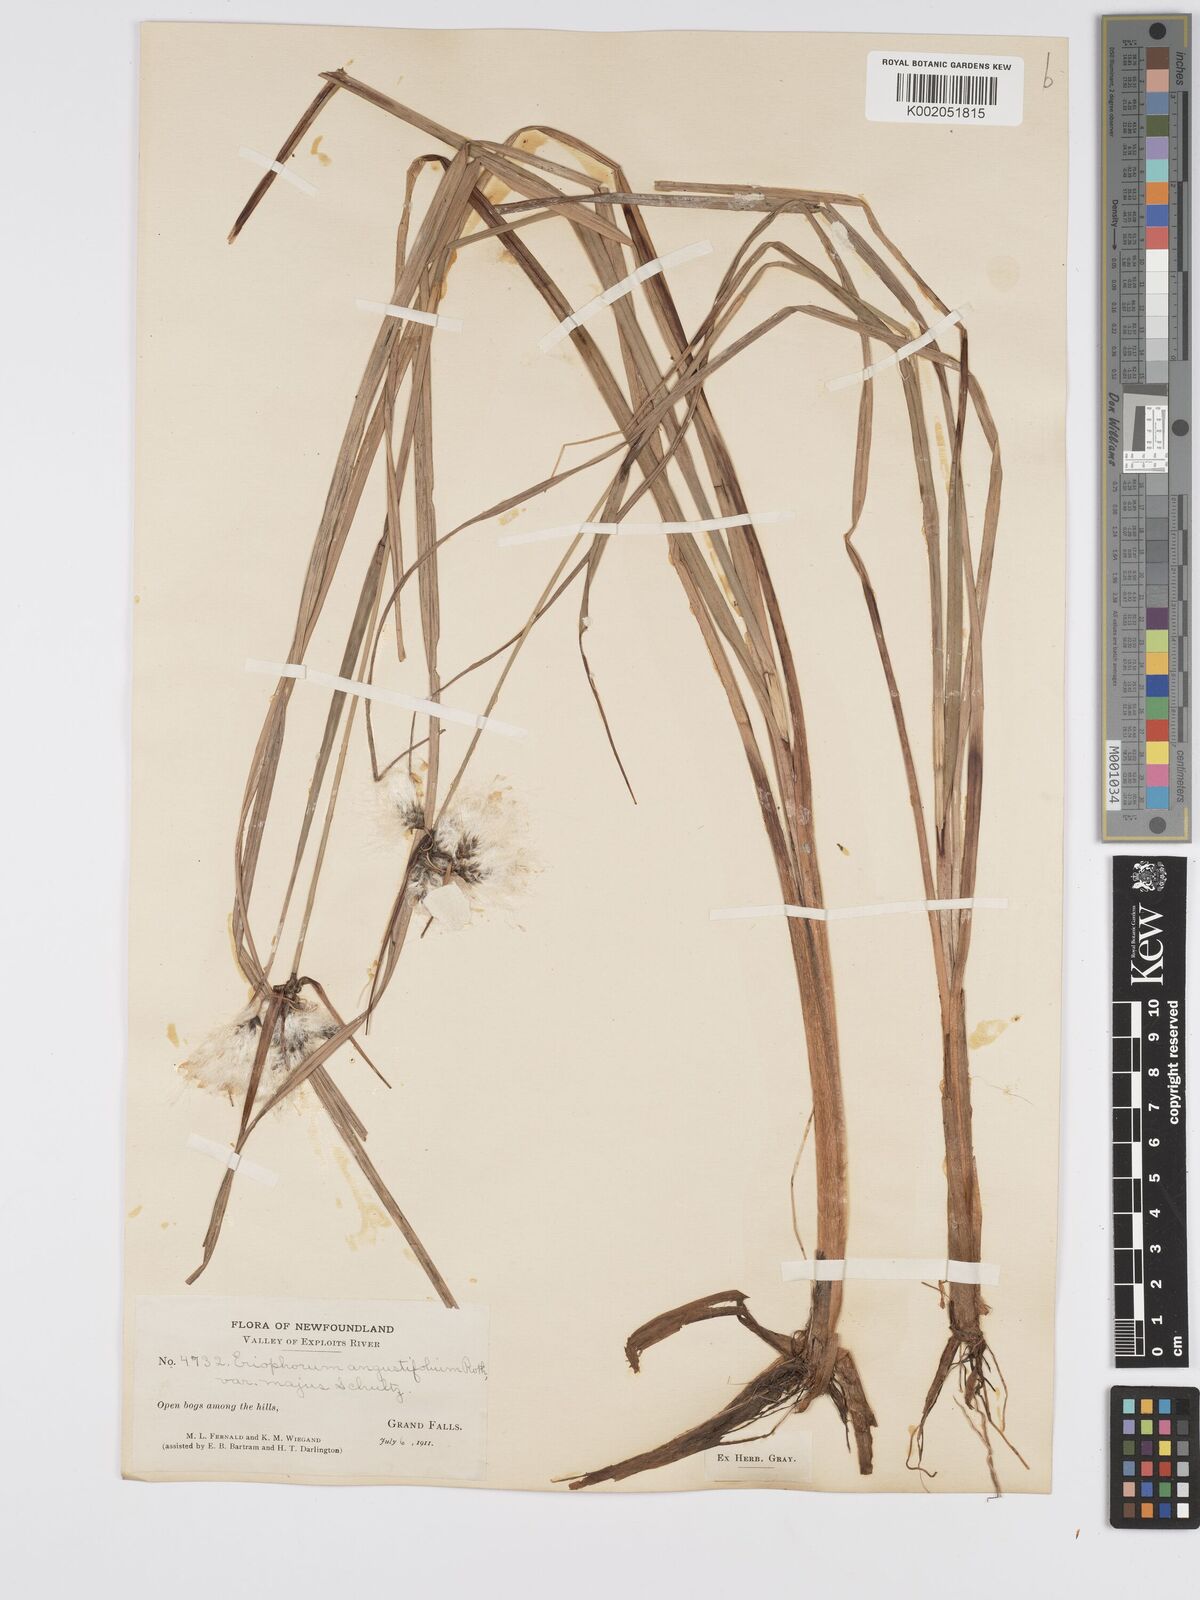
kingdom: Plantae
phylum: Tracheophyta
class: Liliopsida
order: Poales
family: Cyperaceae
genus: Eriophorum
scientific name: Eriophorum angustifolium
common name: Common cottongrass
